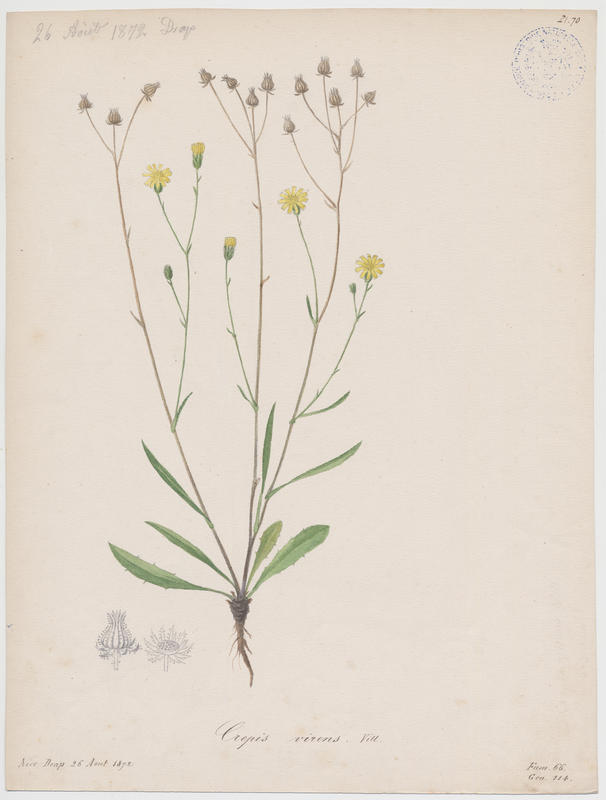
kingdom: Plantae
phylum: Tracheophyta
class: Magnoliopsida
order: Asterales
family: Asteraceae
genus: Crepis
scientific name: Crepis capillaris
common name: Smooth hawksbeard
